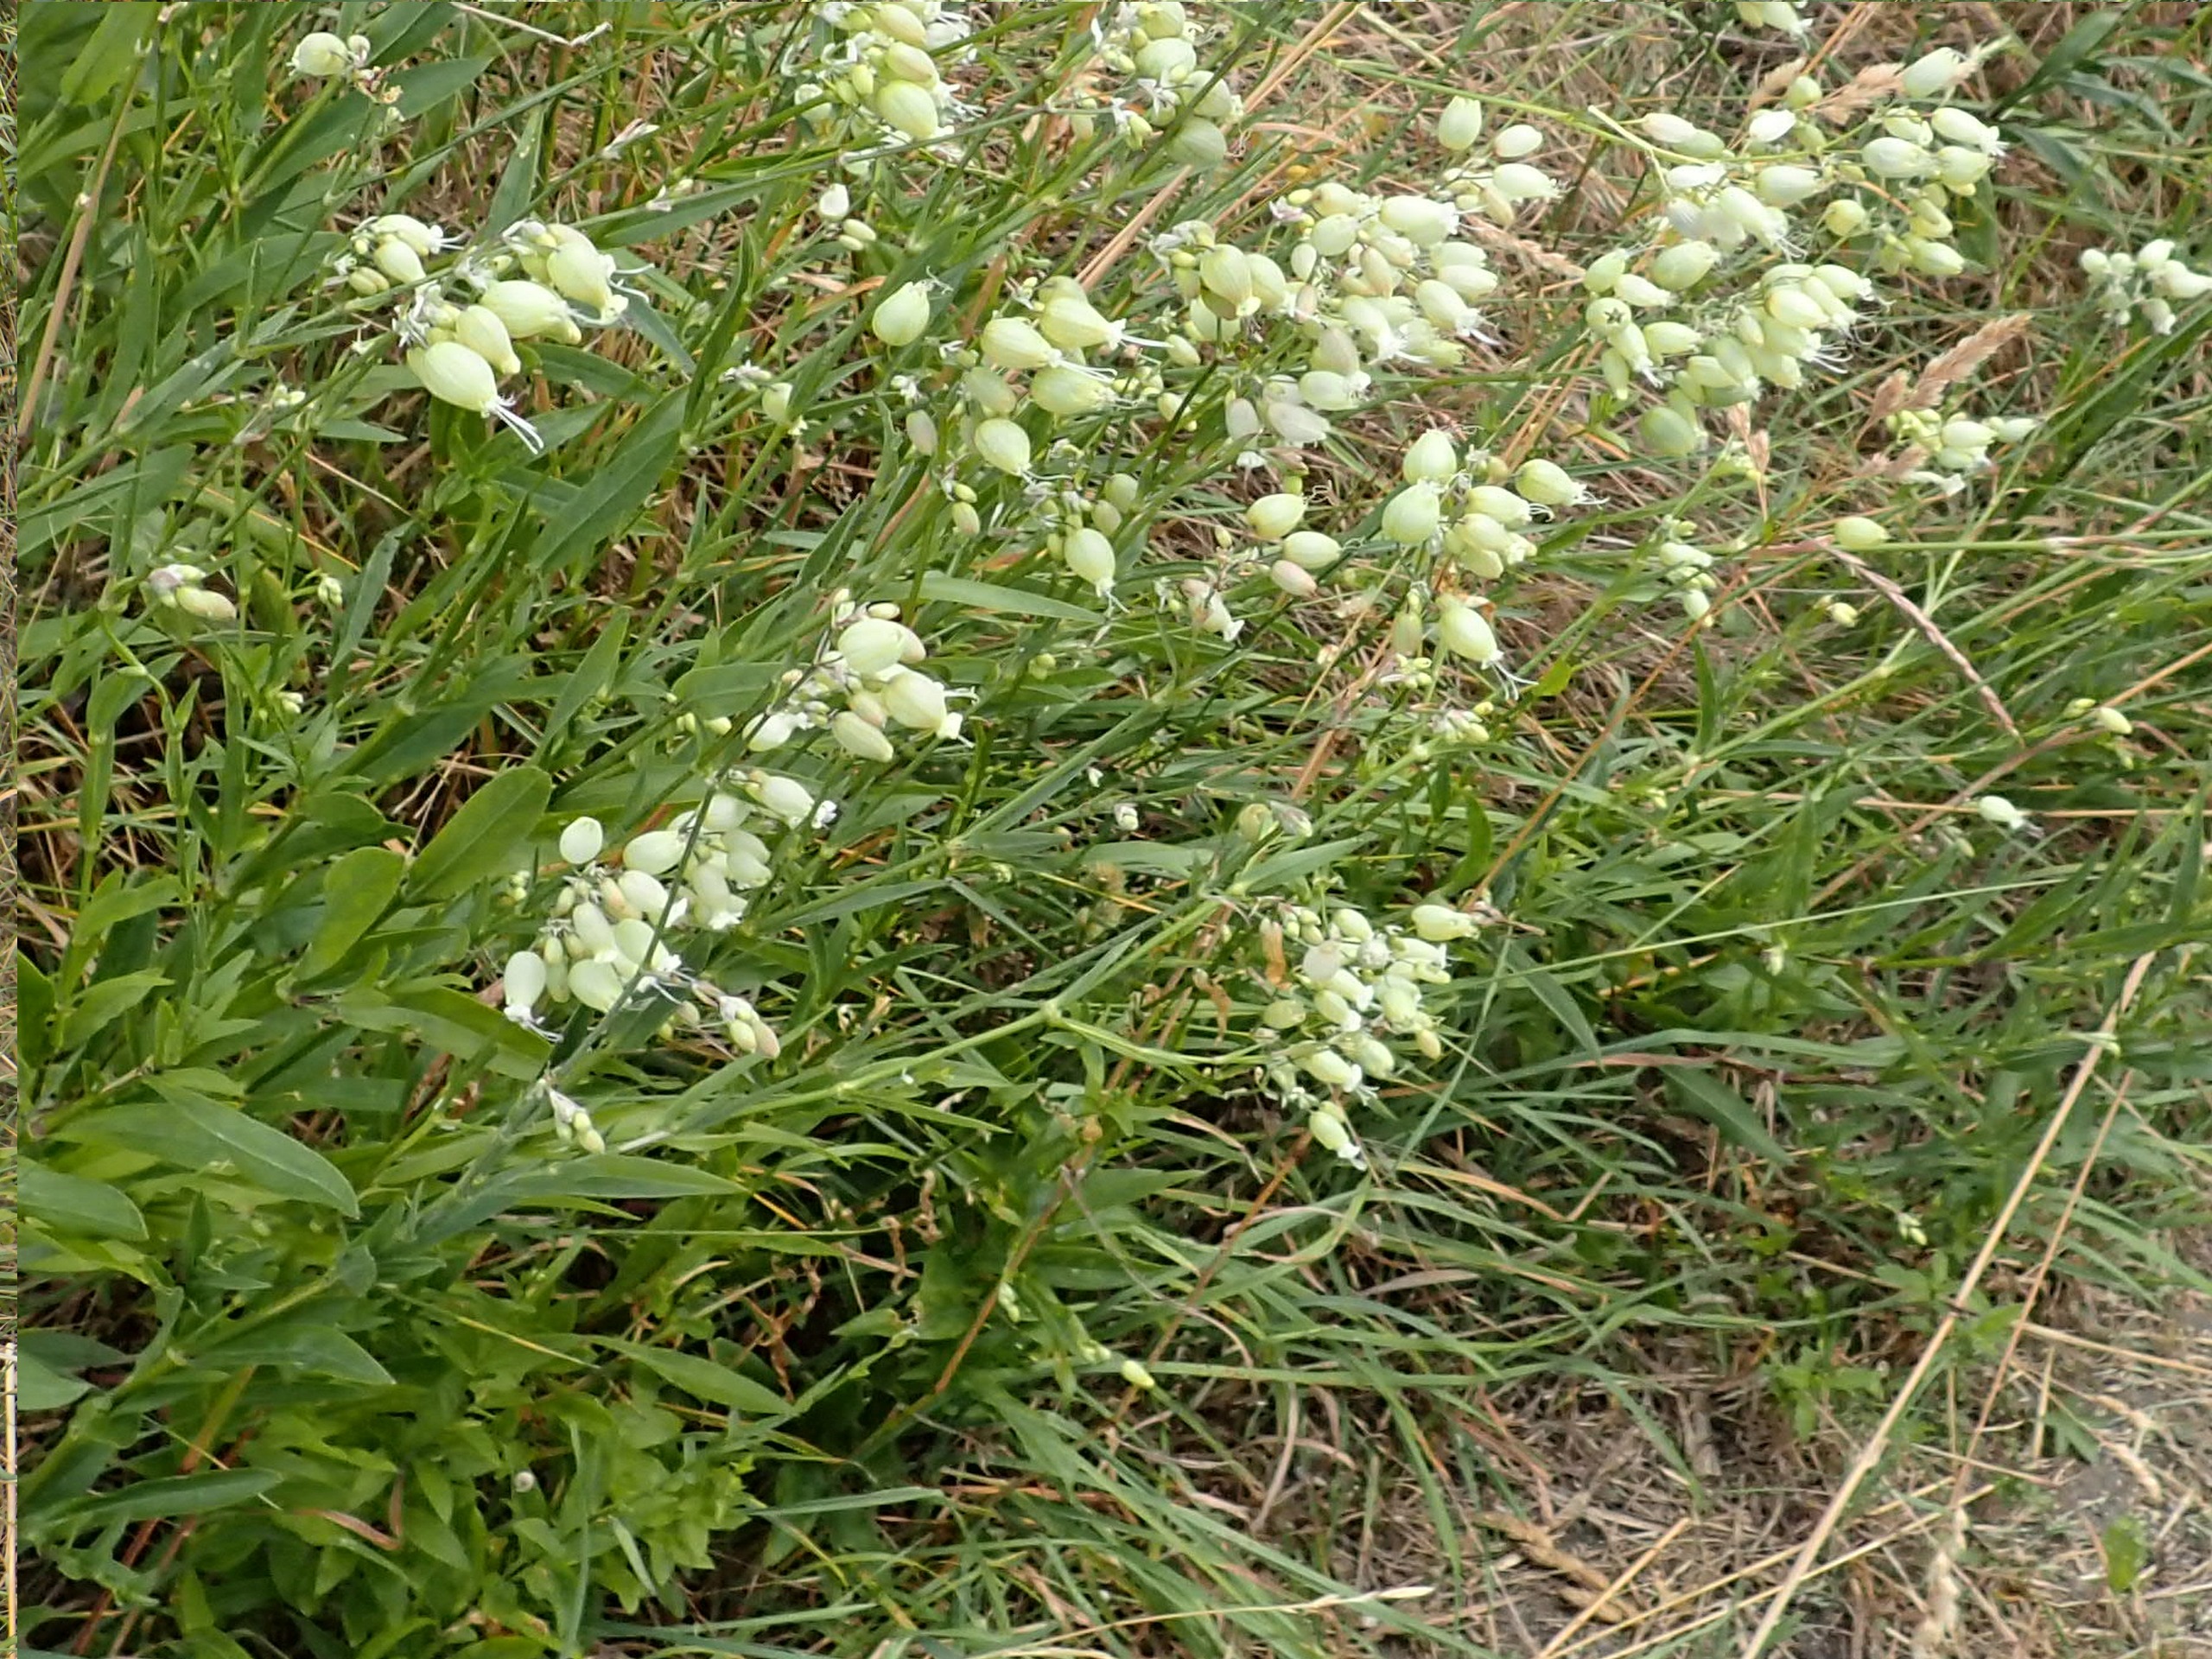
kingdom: Plantae
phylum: Tracheophyta
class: Magnoliopsida
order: Caryophyllales
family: Caryophyllaceae
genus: Silene
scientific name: Silene vulgaris
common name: Blæresmælde
